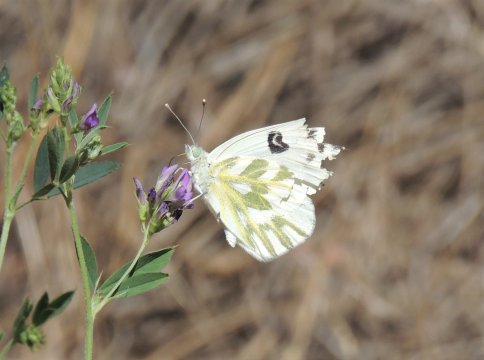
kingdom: Animalia
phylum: Arthropoda
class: Insecta
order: Lepidoptera
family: Pieridae
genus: Pontia
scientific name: Pontia beckerii
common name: Becker's White
